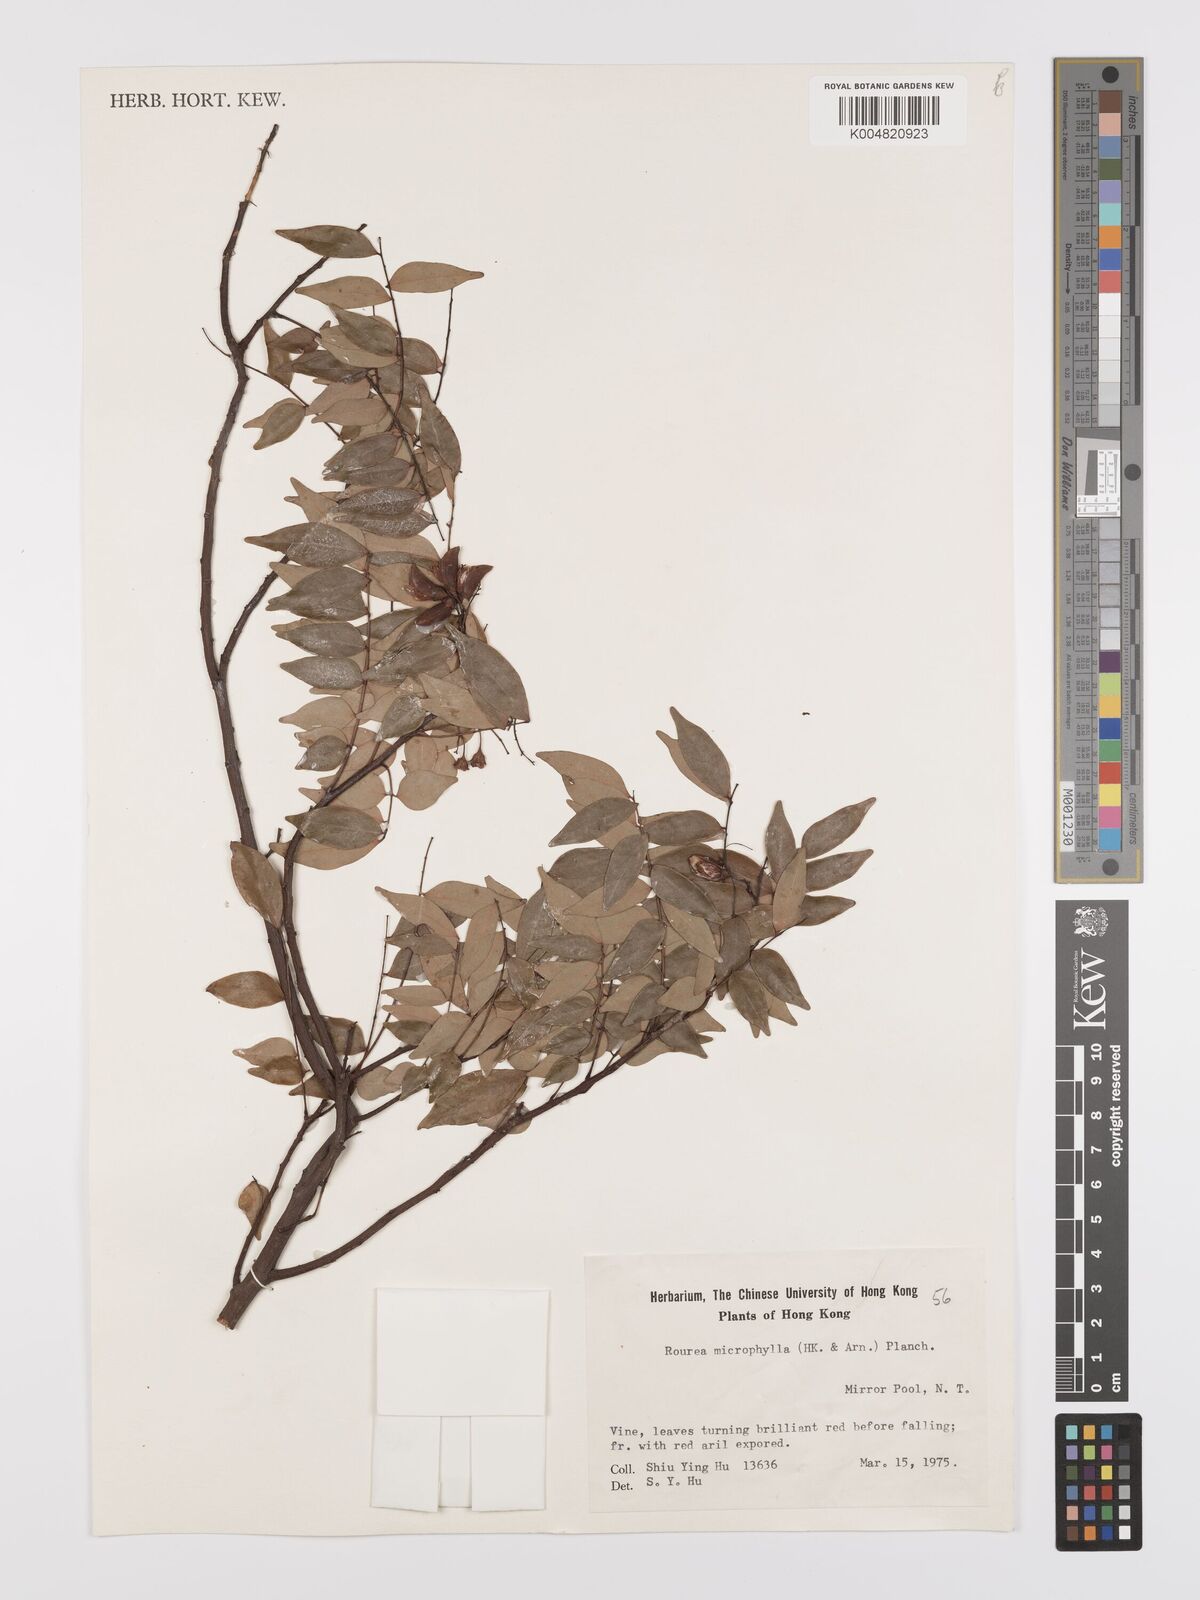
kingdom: Plantae
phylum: Tracheophyta
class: Magnoliopsida
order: Oxalidales
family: Connaraceae
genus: Rourea
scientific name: Rourea microphylla
